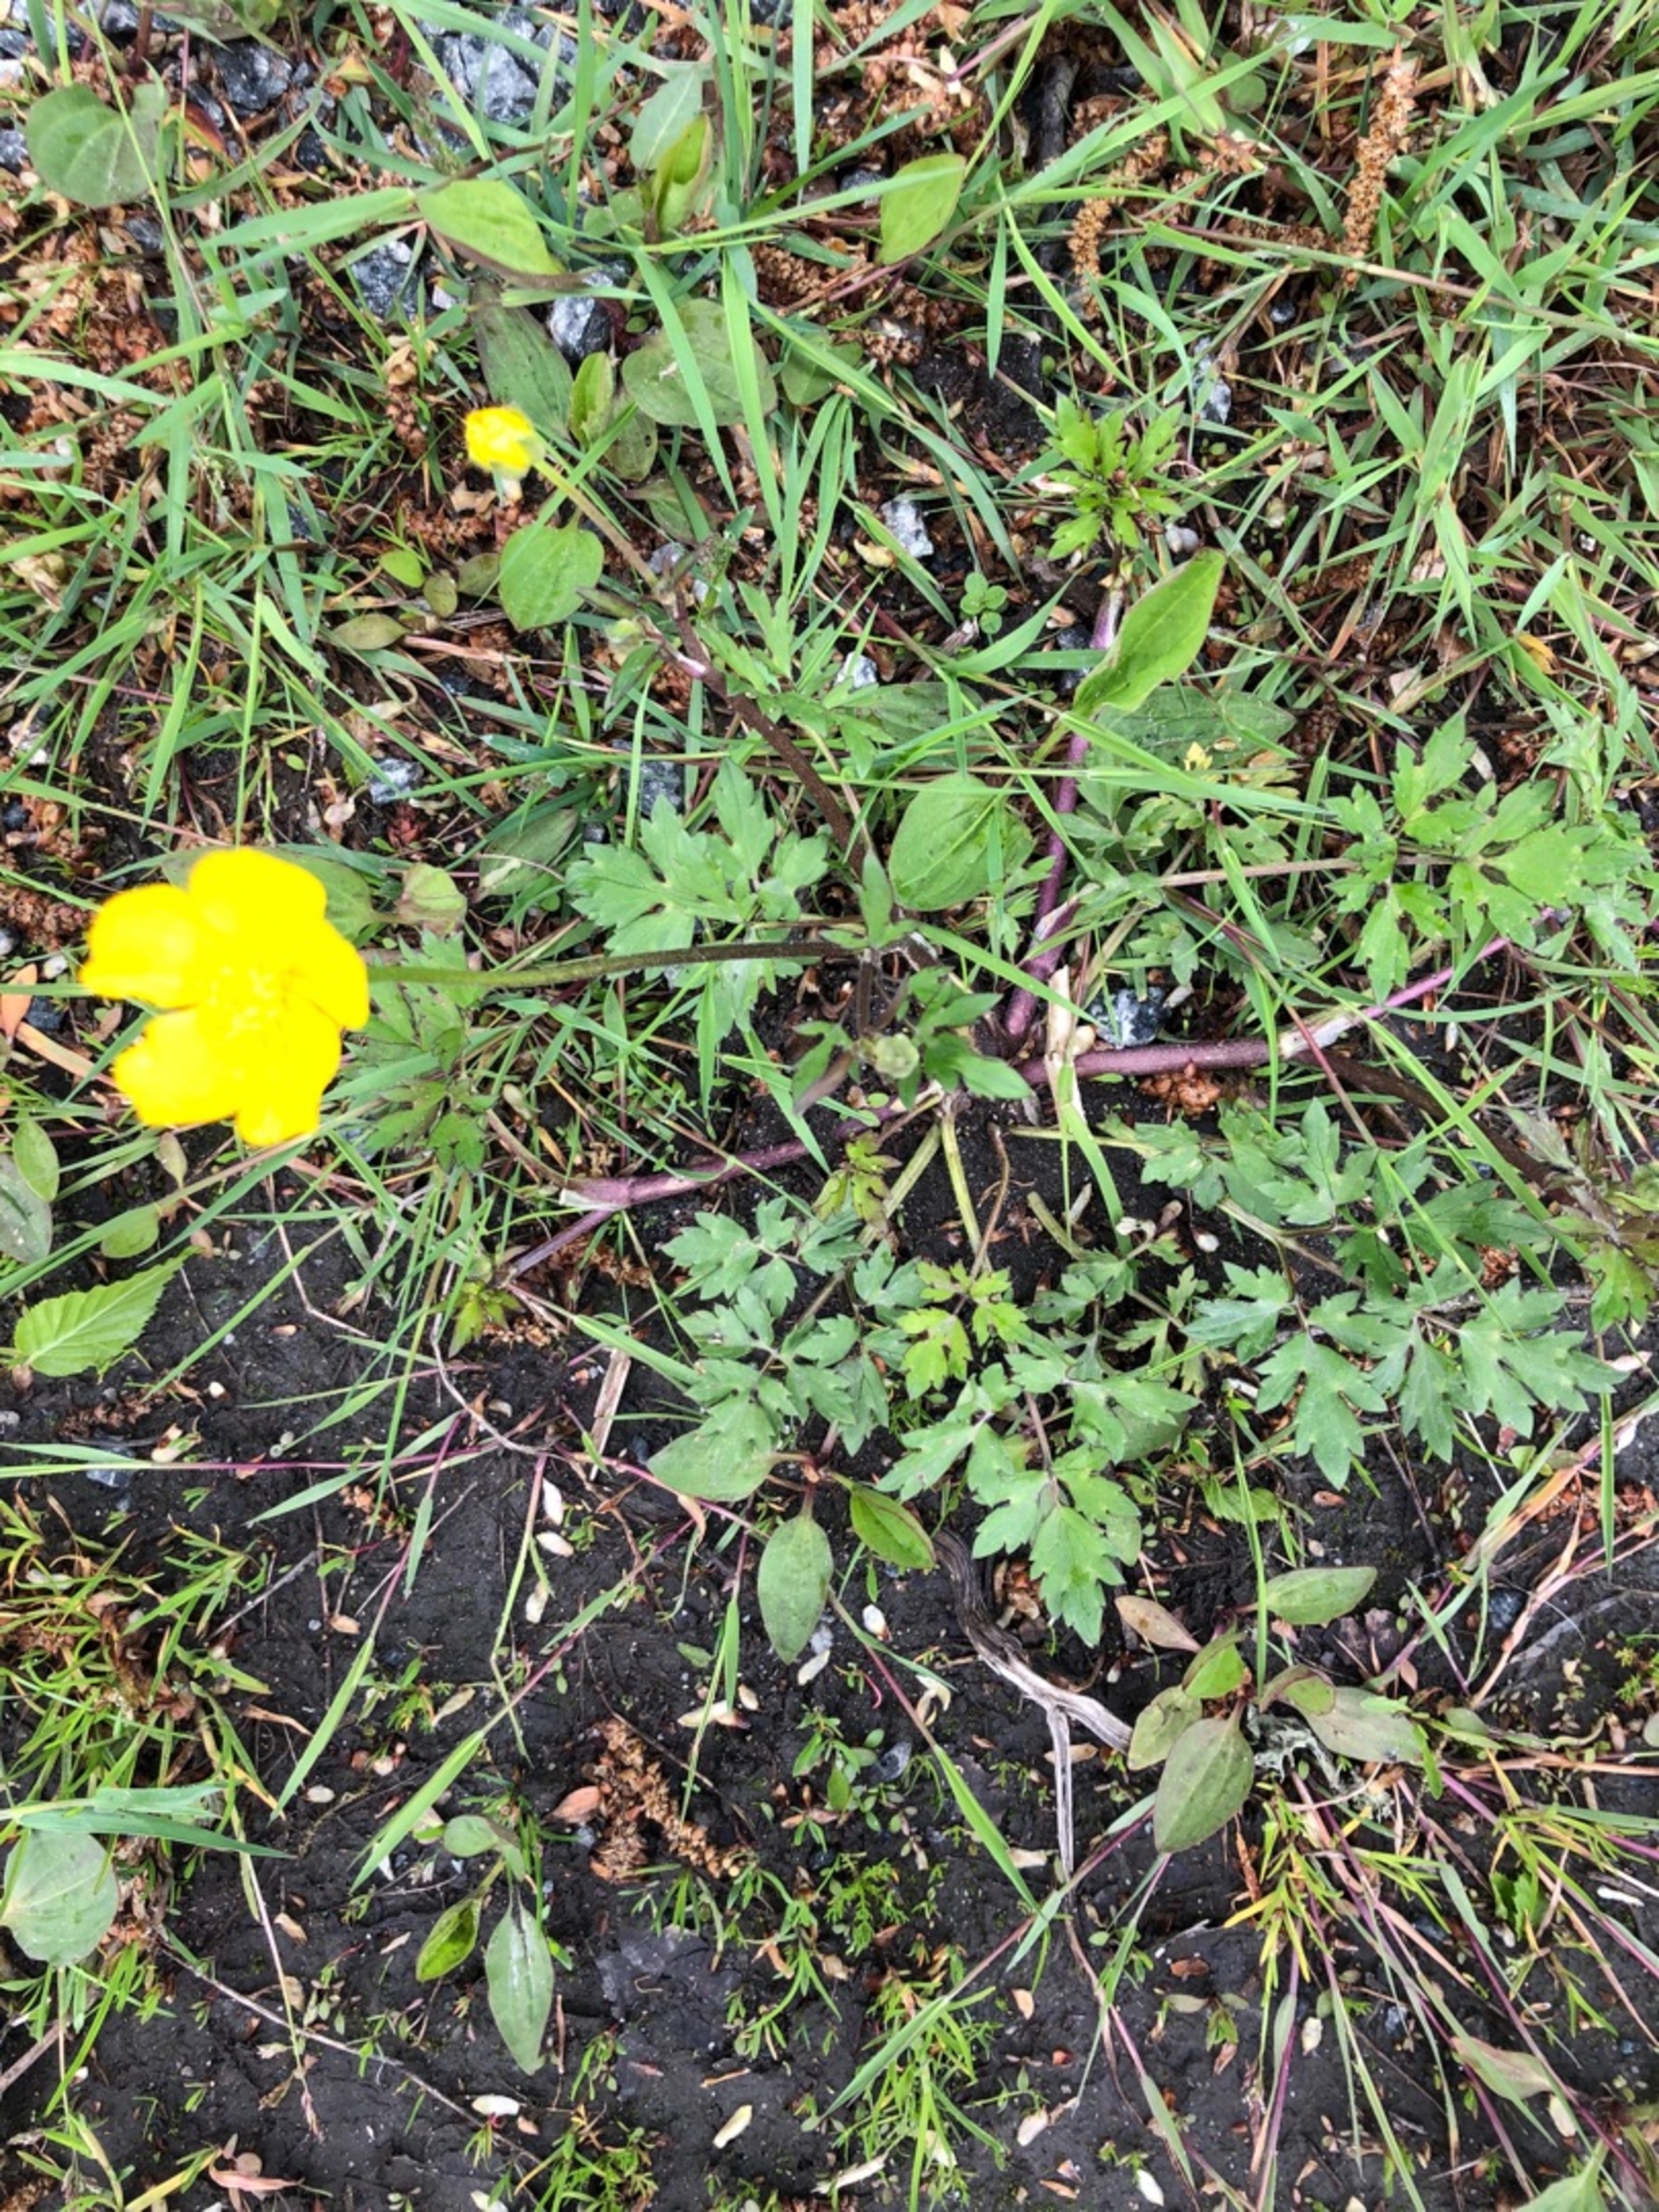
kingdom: Plantae
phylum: Tracheophyta
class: Magnoliopsida
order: Ranunculales
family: Ranunculaceae
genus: Ranunculus
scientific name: Ranunculus repens
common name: Lav ranunkel
